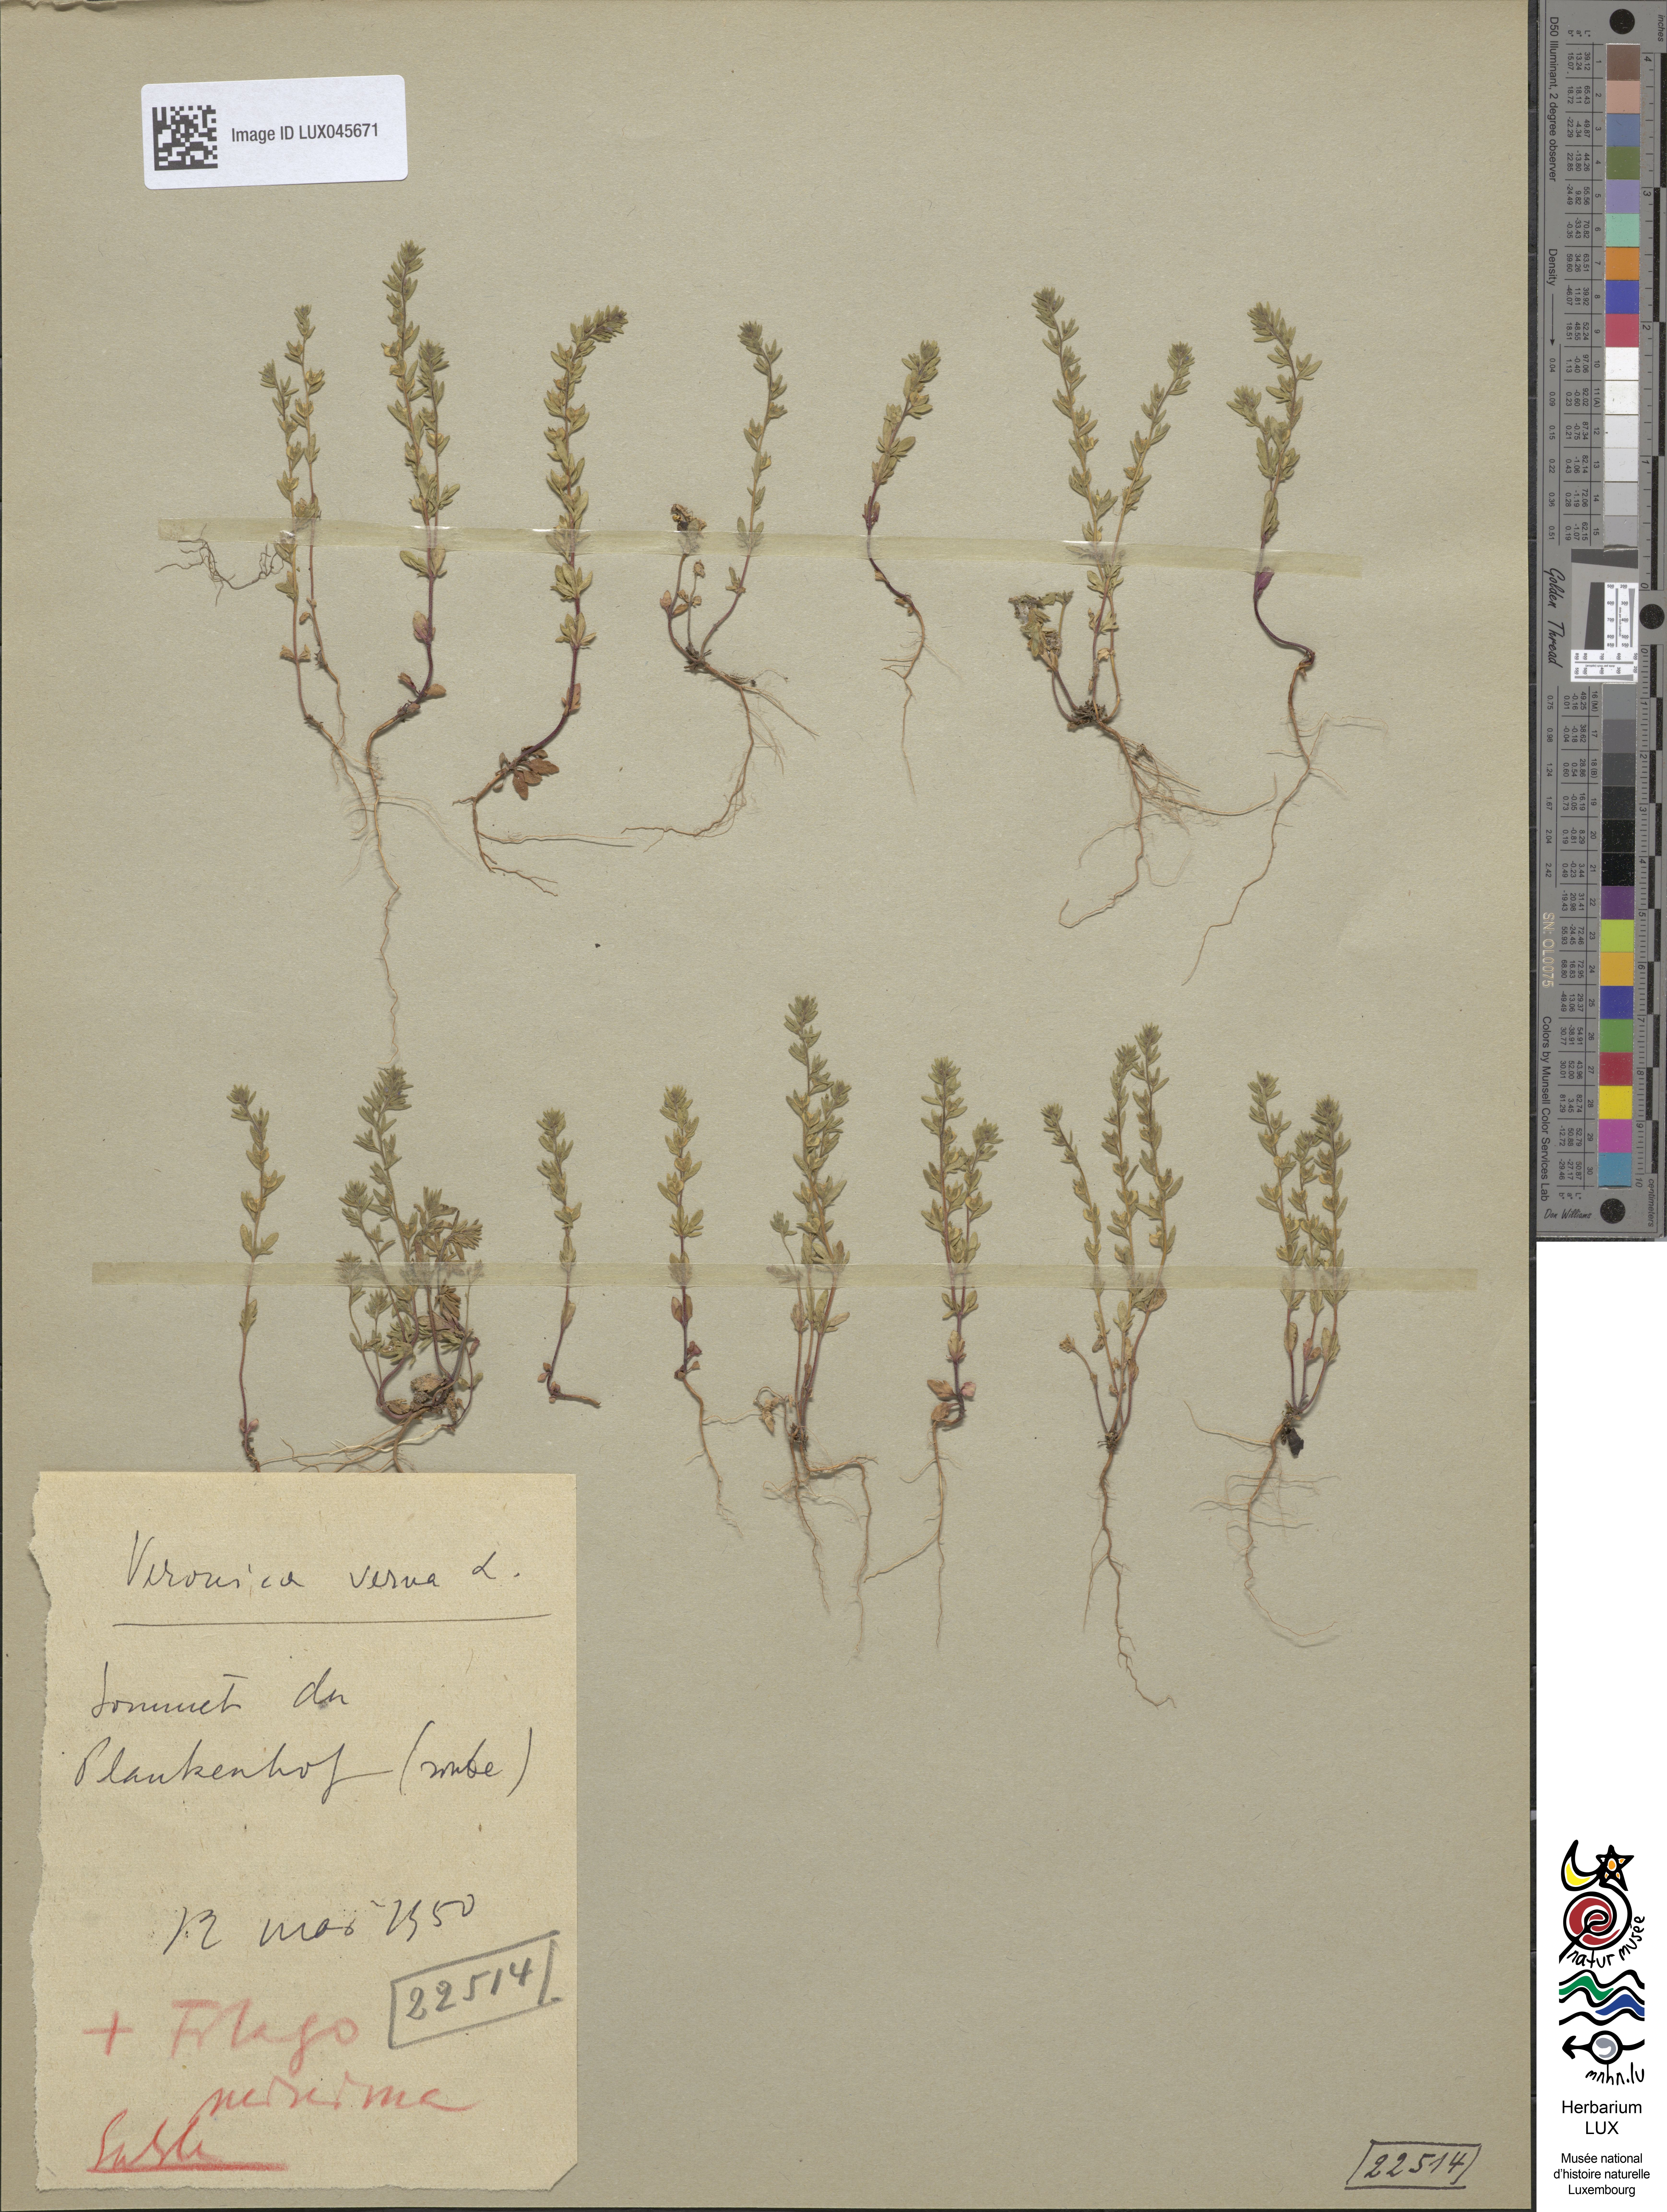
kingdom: Plantae
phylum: Tracheophyta
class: Magnoliopsida
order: Lamiales
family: Plantaginaceae
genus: Veronica
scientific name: Veronica verna
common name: Spring speedwell
